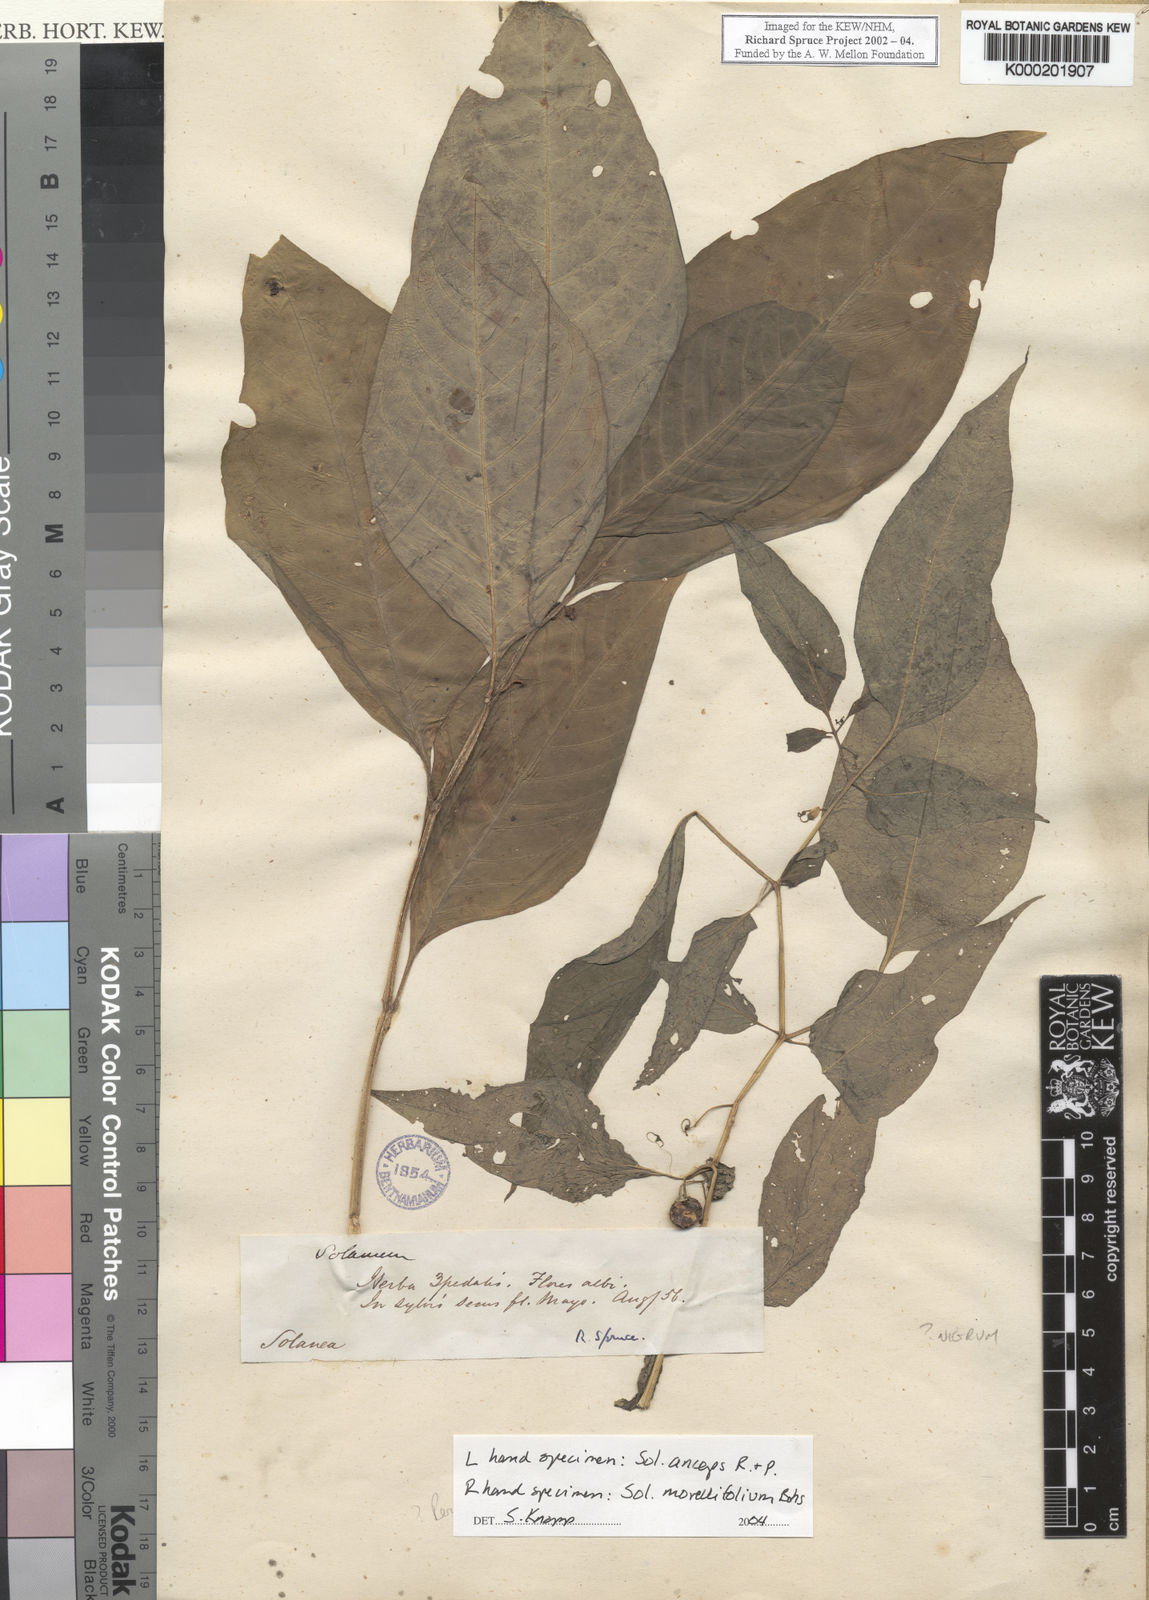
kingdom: Plantae
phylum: Tracheophyta
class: Magnoliopsida
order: Solanales
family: Solanaceae
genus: Solanum
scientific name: Solanum morellifolium
